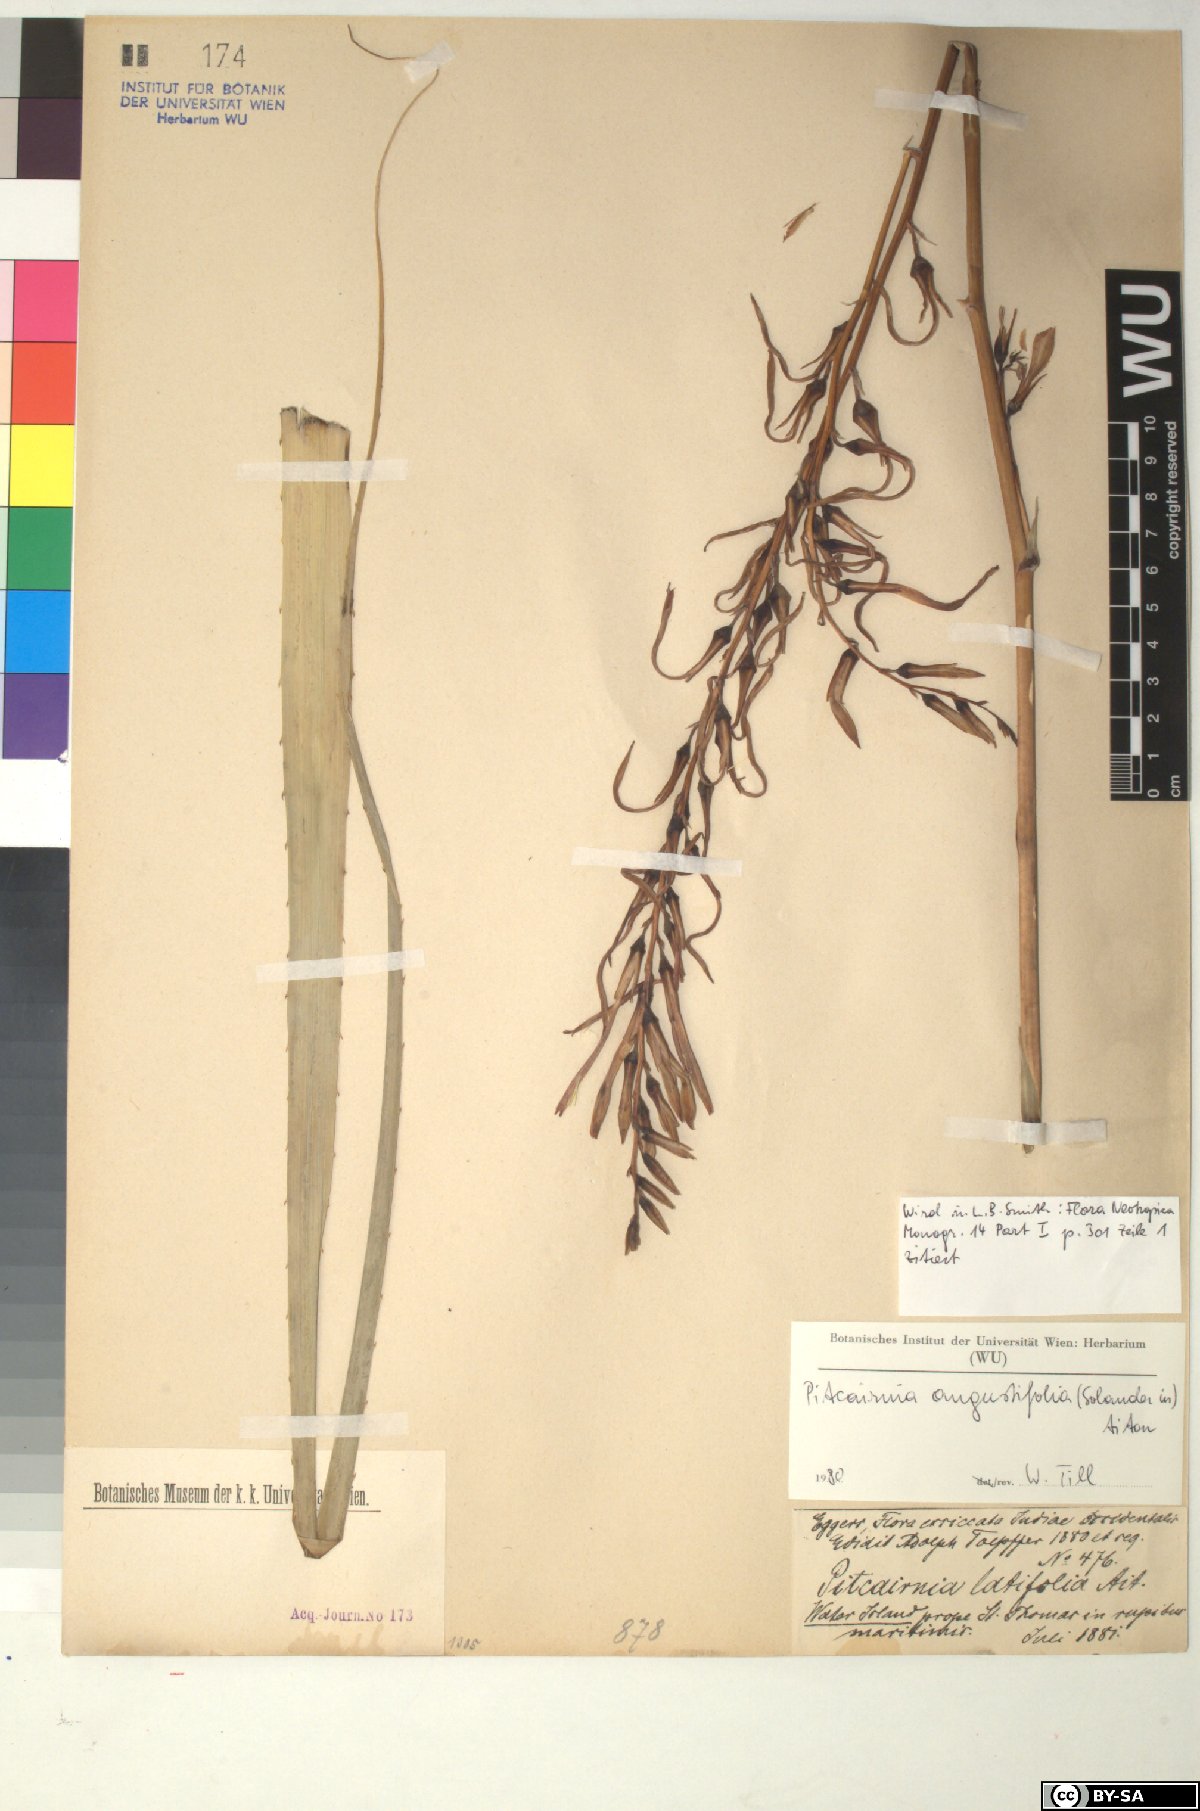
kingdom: Plantae
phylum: Tracheophyta
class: Liliopsida
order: Poales
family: Bromeliaceae
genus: Pitcairnia
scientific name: Pitcairnia angustifolia
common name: Clapper
